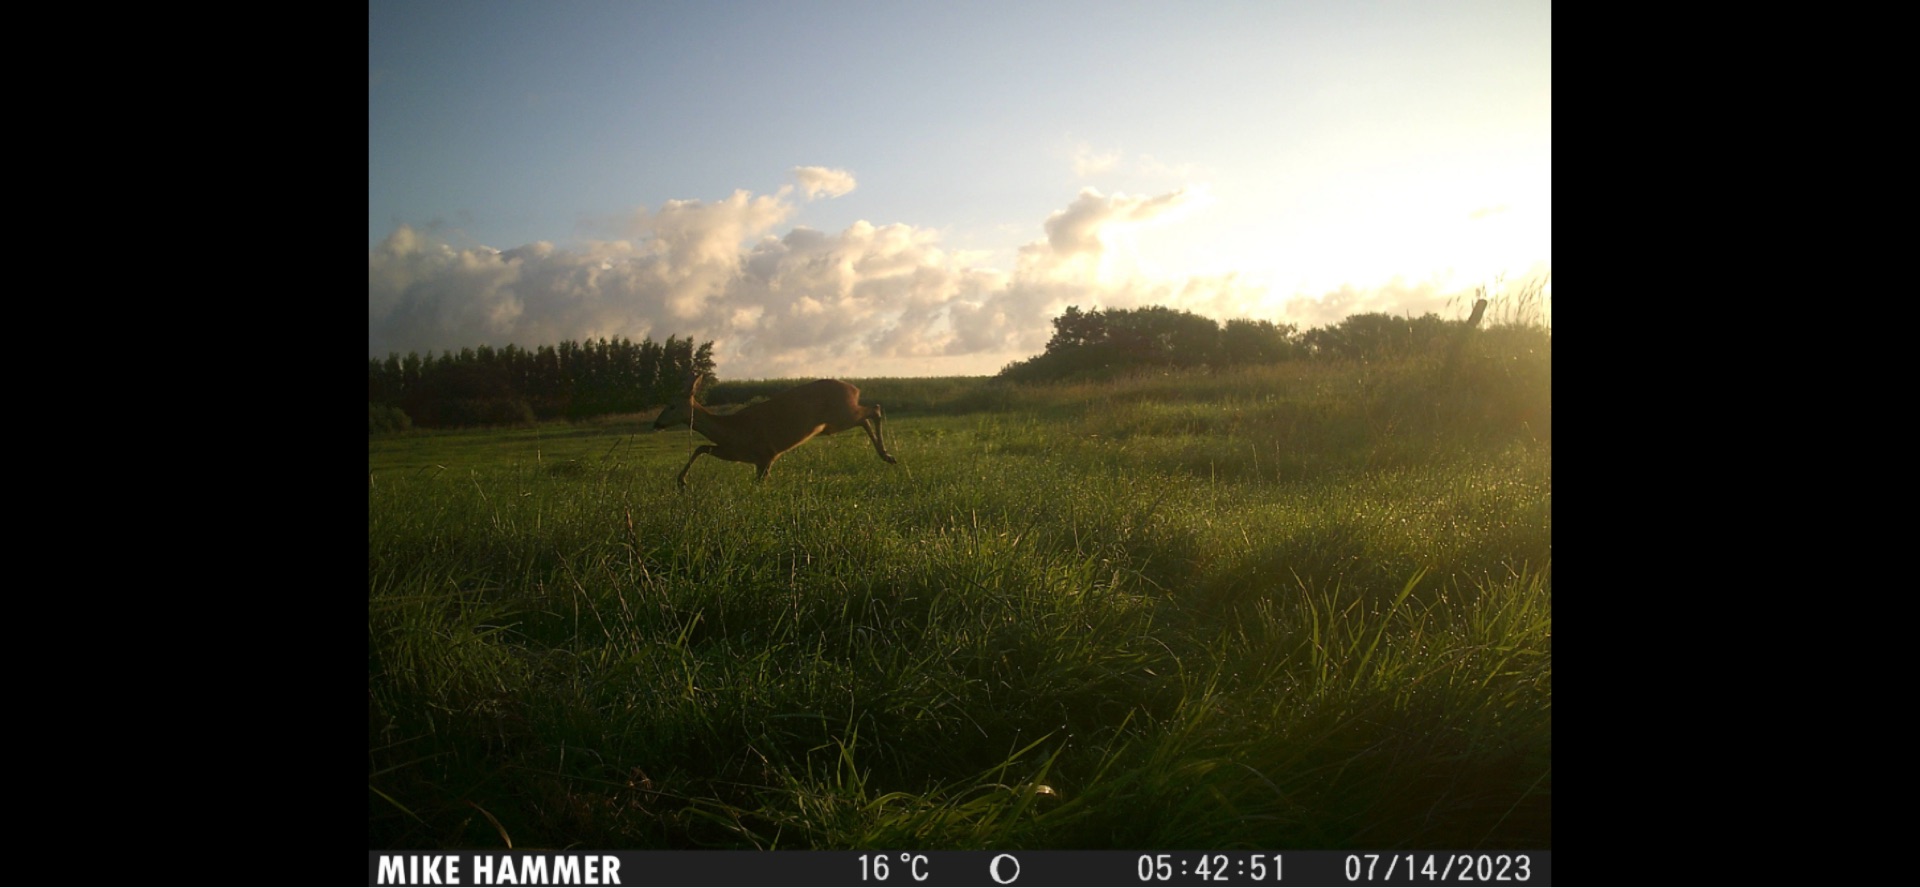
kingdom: Animalia
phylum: Chordata
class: Mammalia
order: Artiodactyla
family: Cervidae
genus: Capreolus
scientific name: Capreolus capreolus
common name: Rådyr
